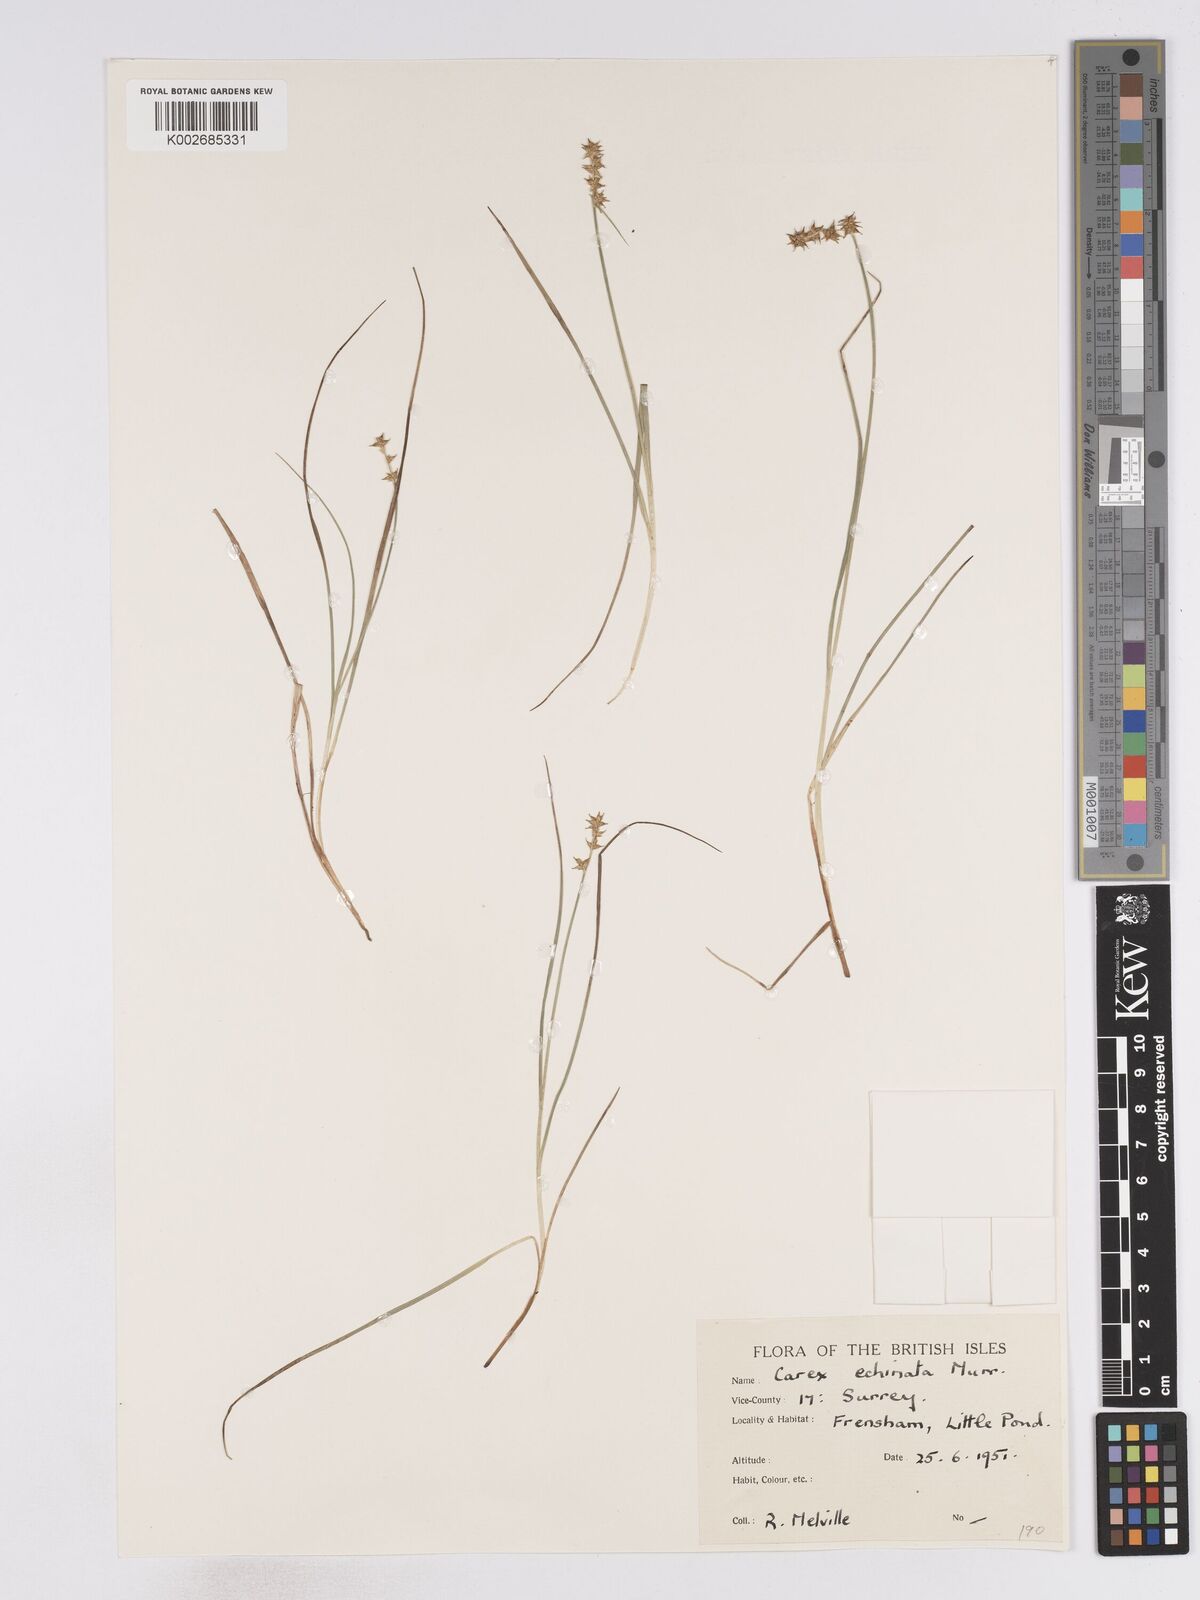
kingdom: Plantae
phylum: Tracheophyta
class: Liliopsida
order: Poales
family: Cyperaceae
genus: Carex
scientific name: Carex echinata
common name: Star sedge
